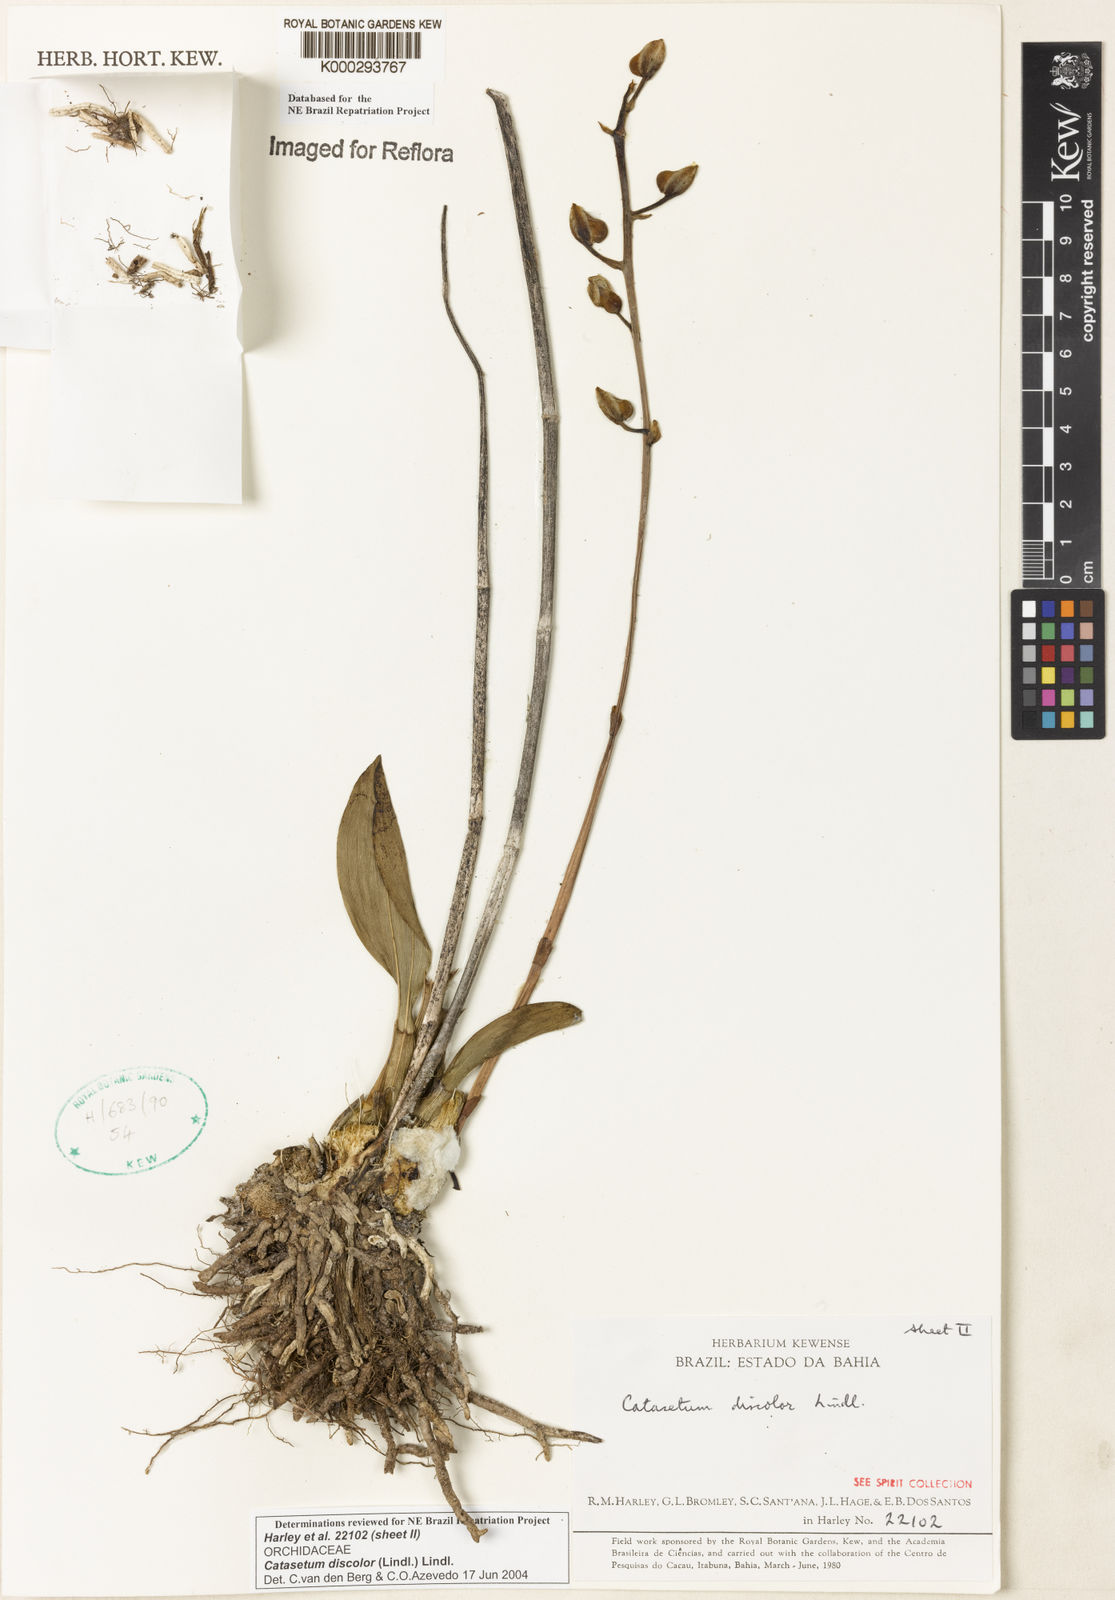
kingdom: Plantae
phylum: Tracheophyta
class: Liliopsida
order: Asparagales
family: Orchidaceae
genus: Catasetum
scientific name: Catasetum discolor
